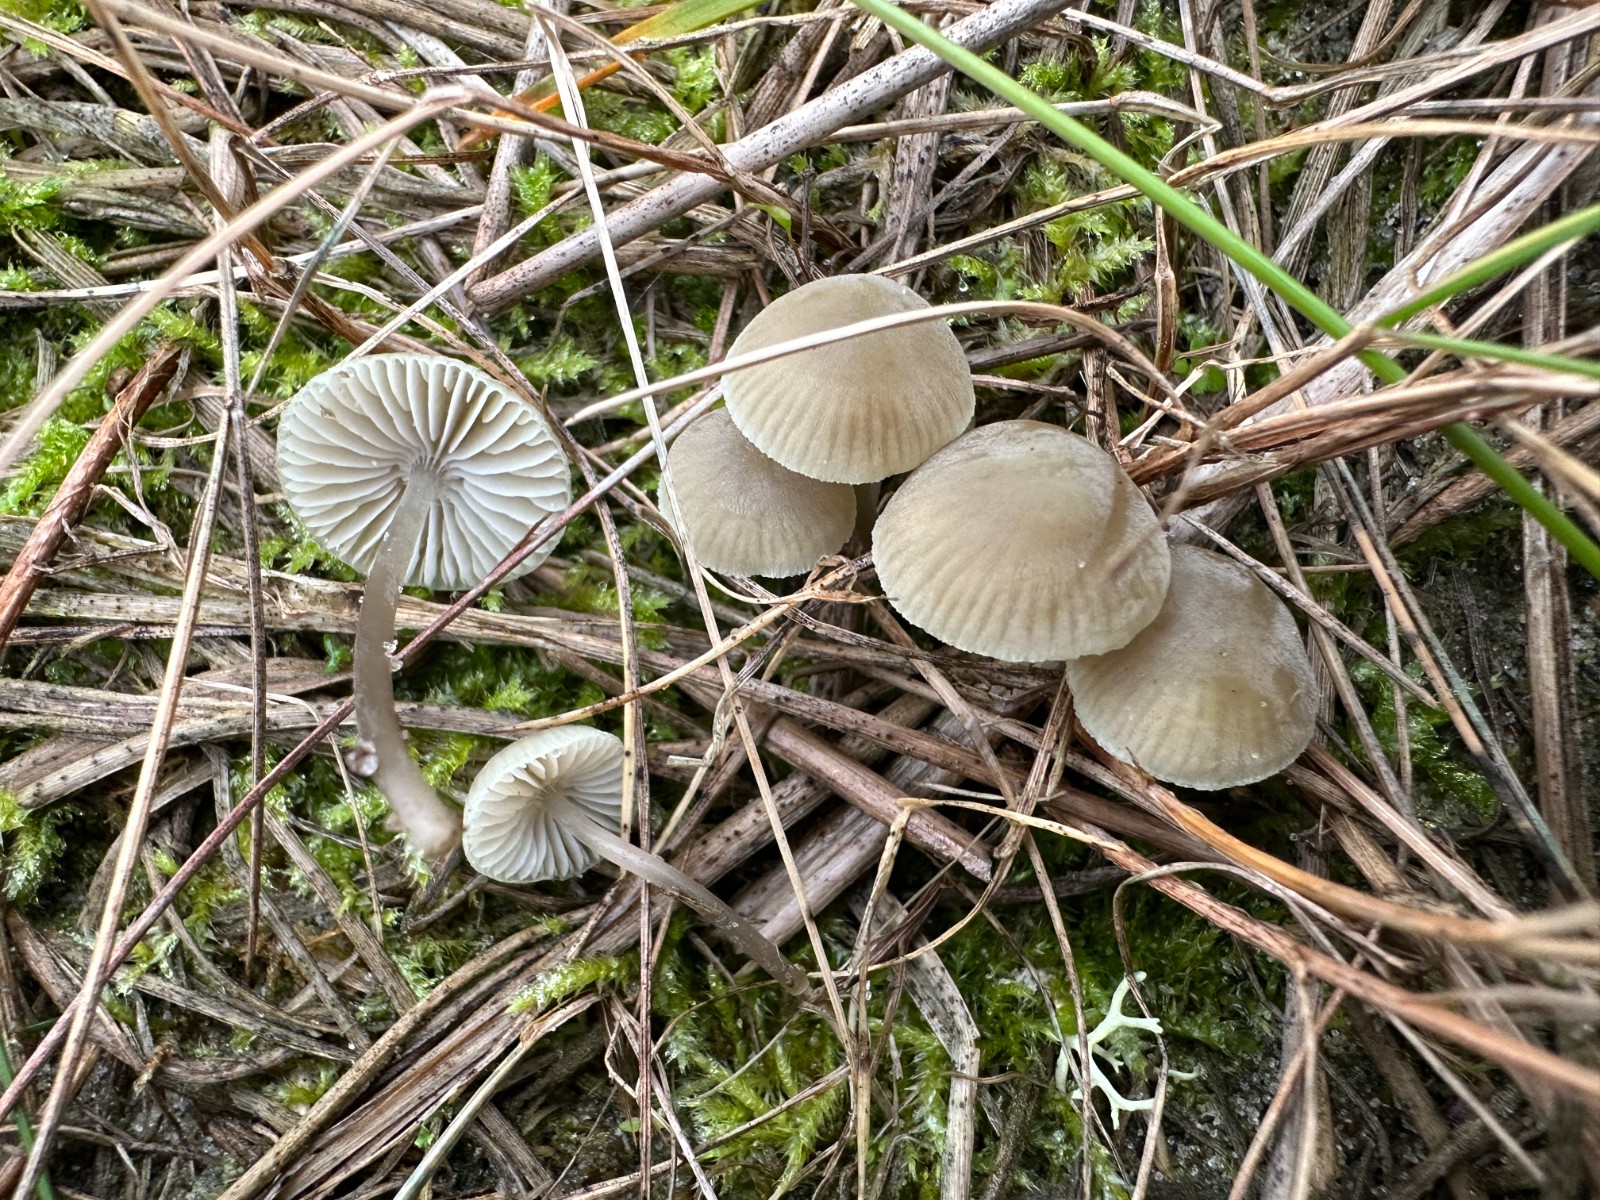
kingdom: Fungi
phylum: Basidiomycota
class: Agaricomycetes
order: Agaricales
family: Mycenaceae
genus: Mycena
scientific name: Mycena chlorantha
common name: klit-huesvamp
